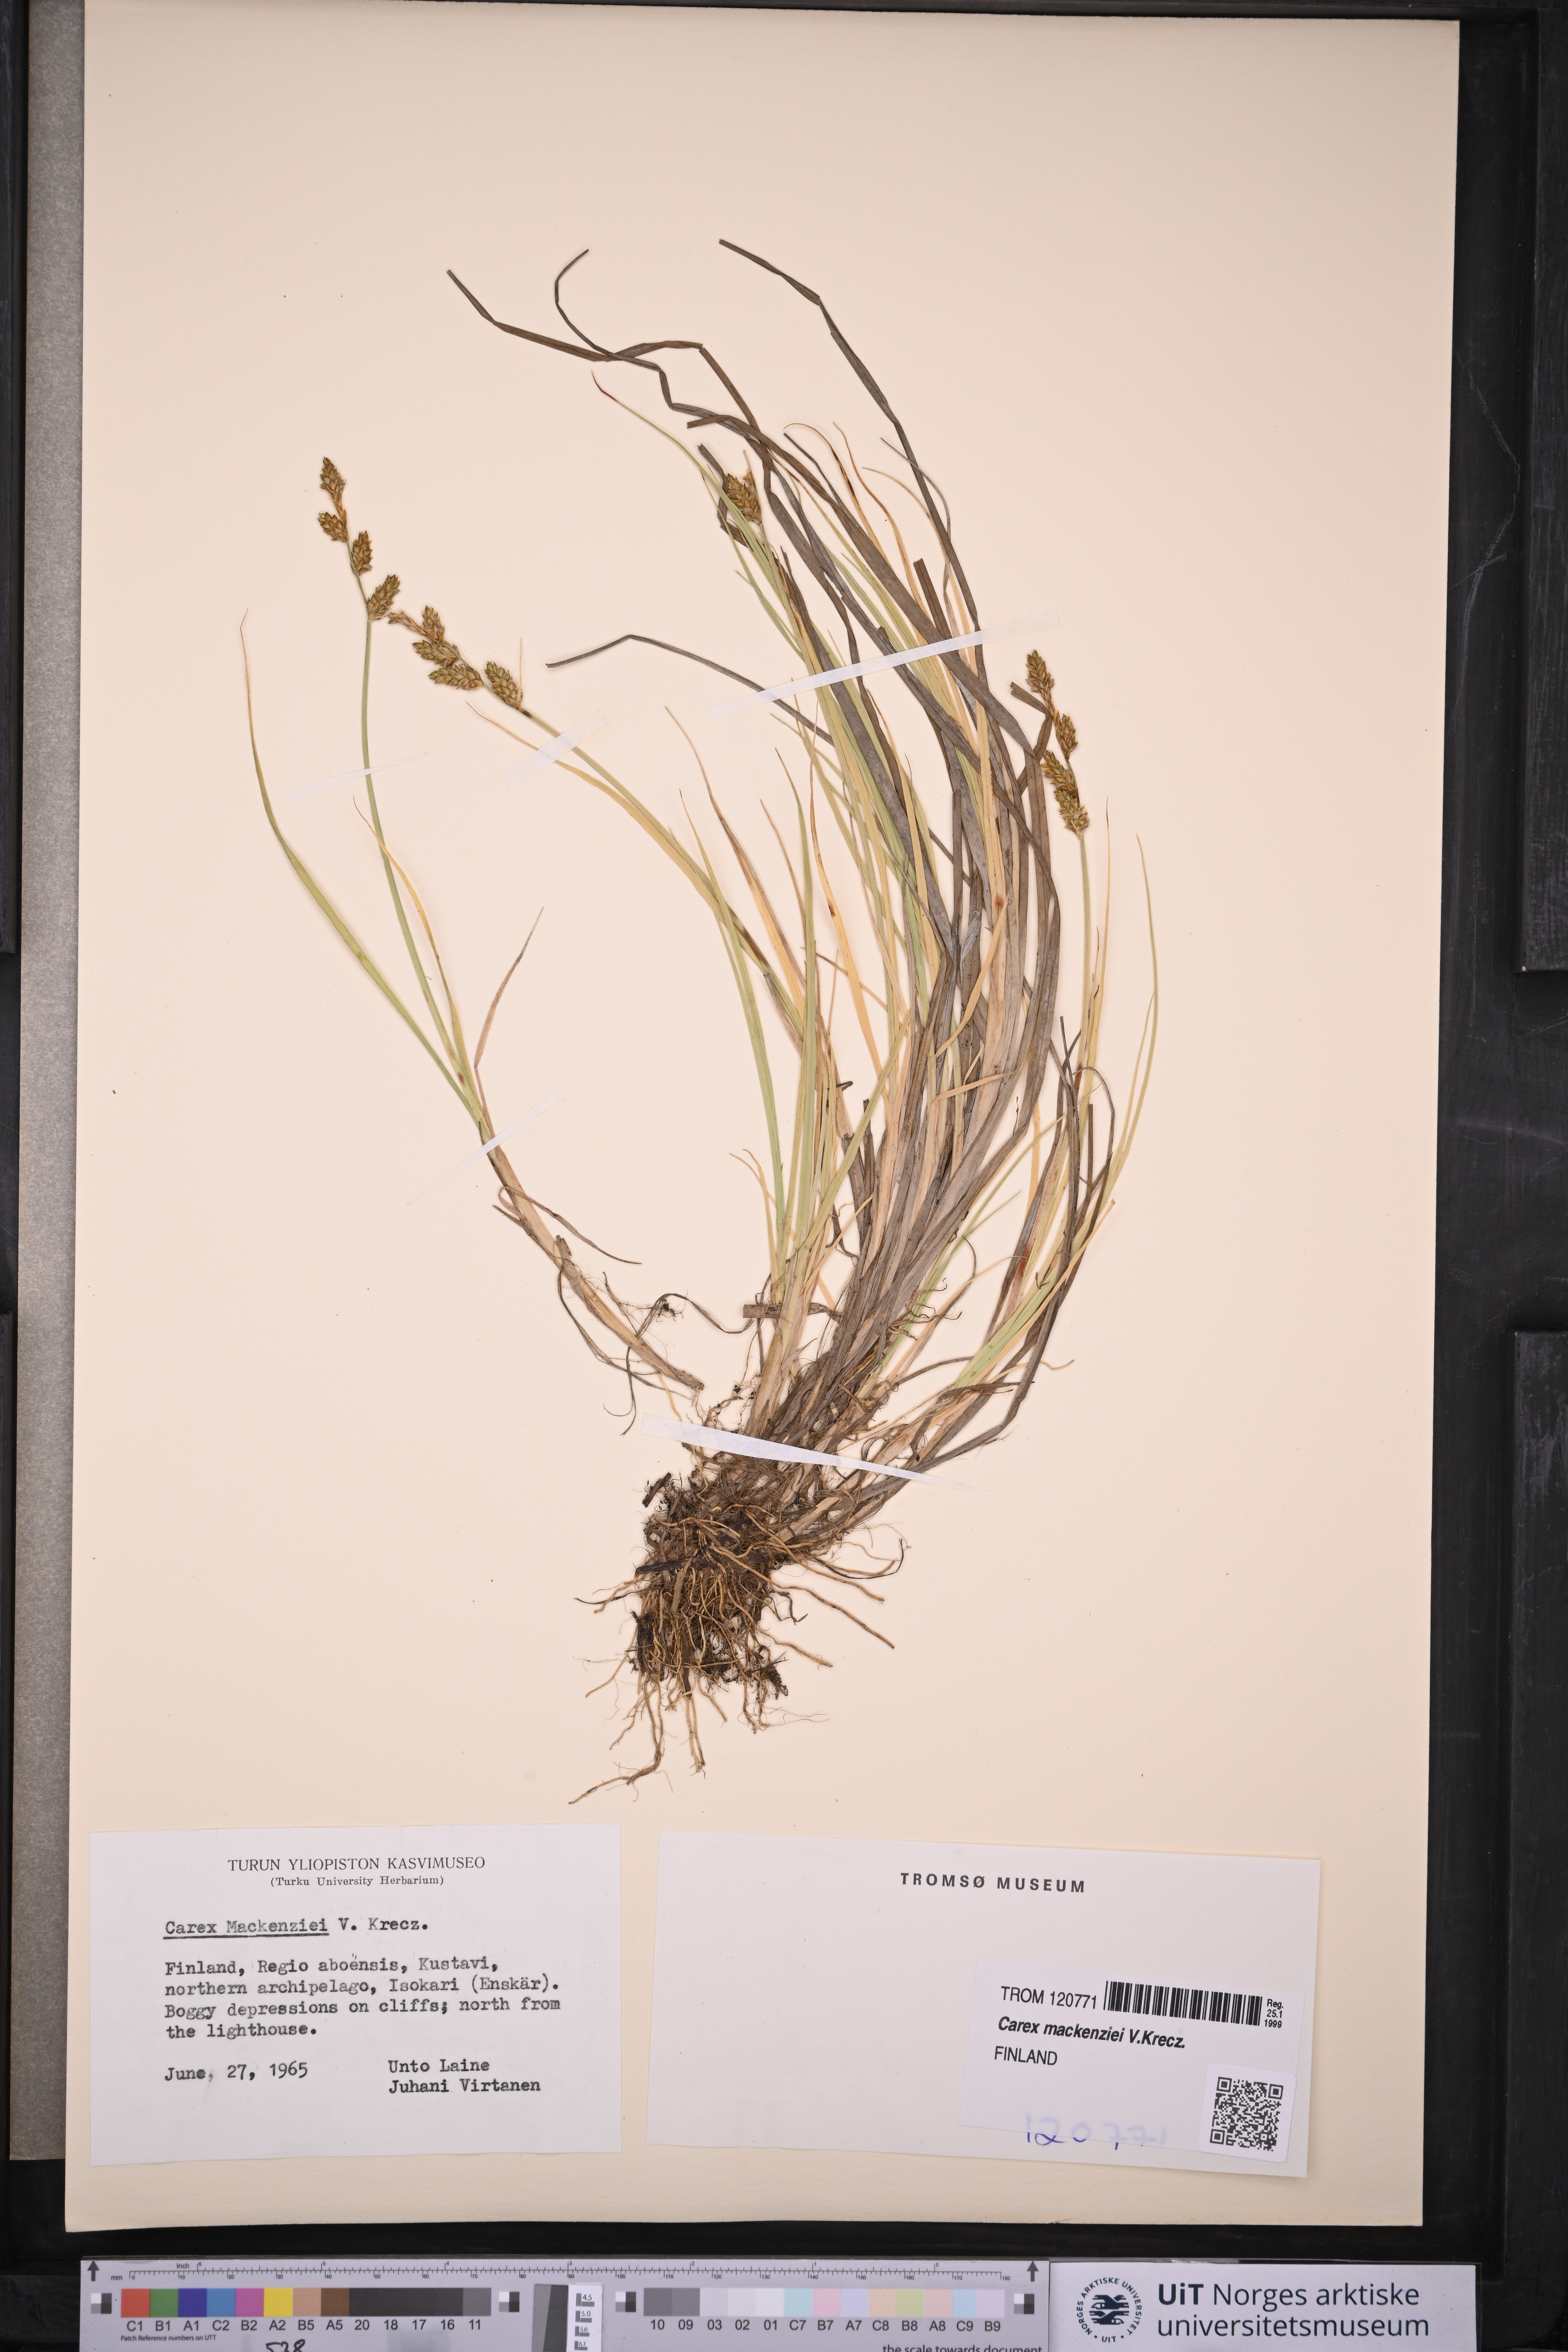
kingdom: Plantae
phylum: Tracheophyta
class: Liliopsida
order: Poales
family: Cyperaceae
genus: Carex
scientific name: Carex mackenziei
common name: Mackenzie's sedge
